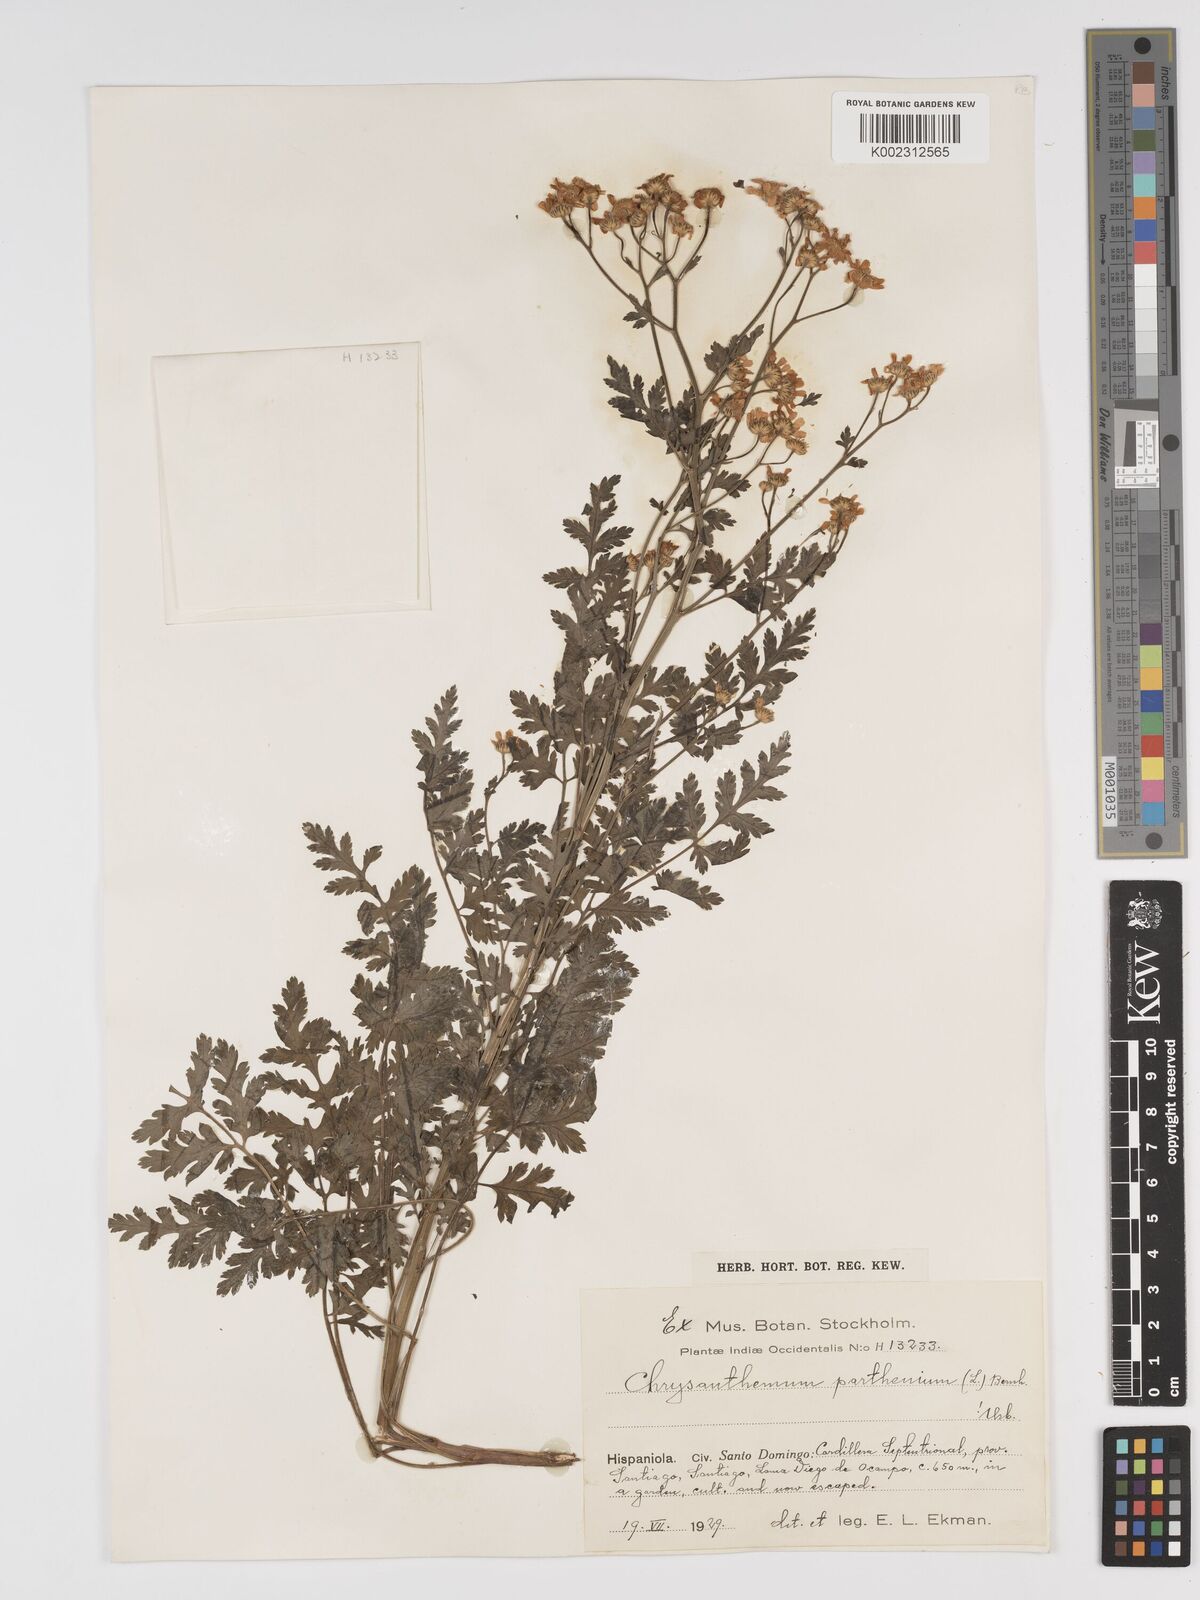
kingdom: Plantae
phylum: Tracheophyta
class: Magnoliopsida
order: Asterales
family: Asteraceae
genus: Tanacetum
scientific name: Tanacetum parthenium
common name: Feverfew
